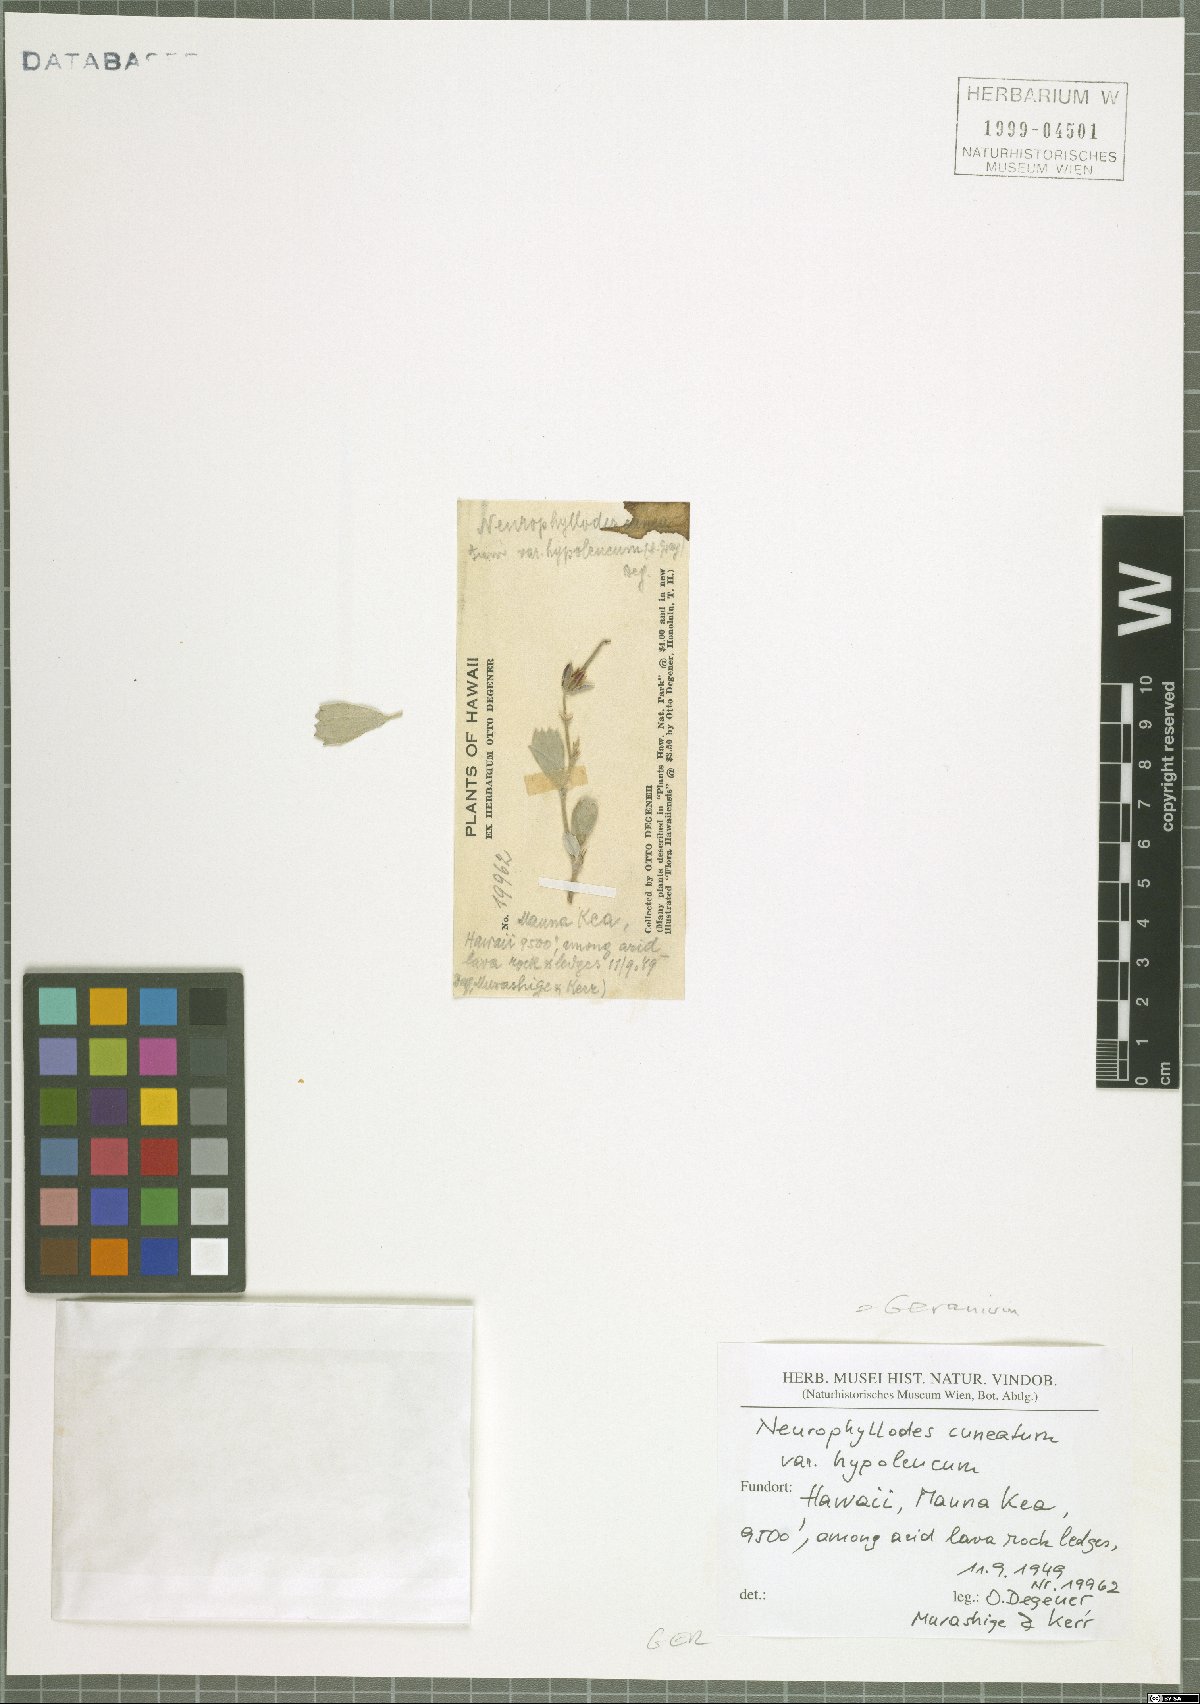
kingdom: Plantae
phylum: Tracheophyta
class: Magnoliopsida
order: Geraniales
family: Geraniaceae
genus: Geranium
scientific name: Geranium cuneatum
